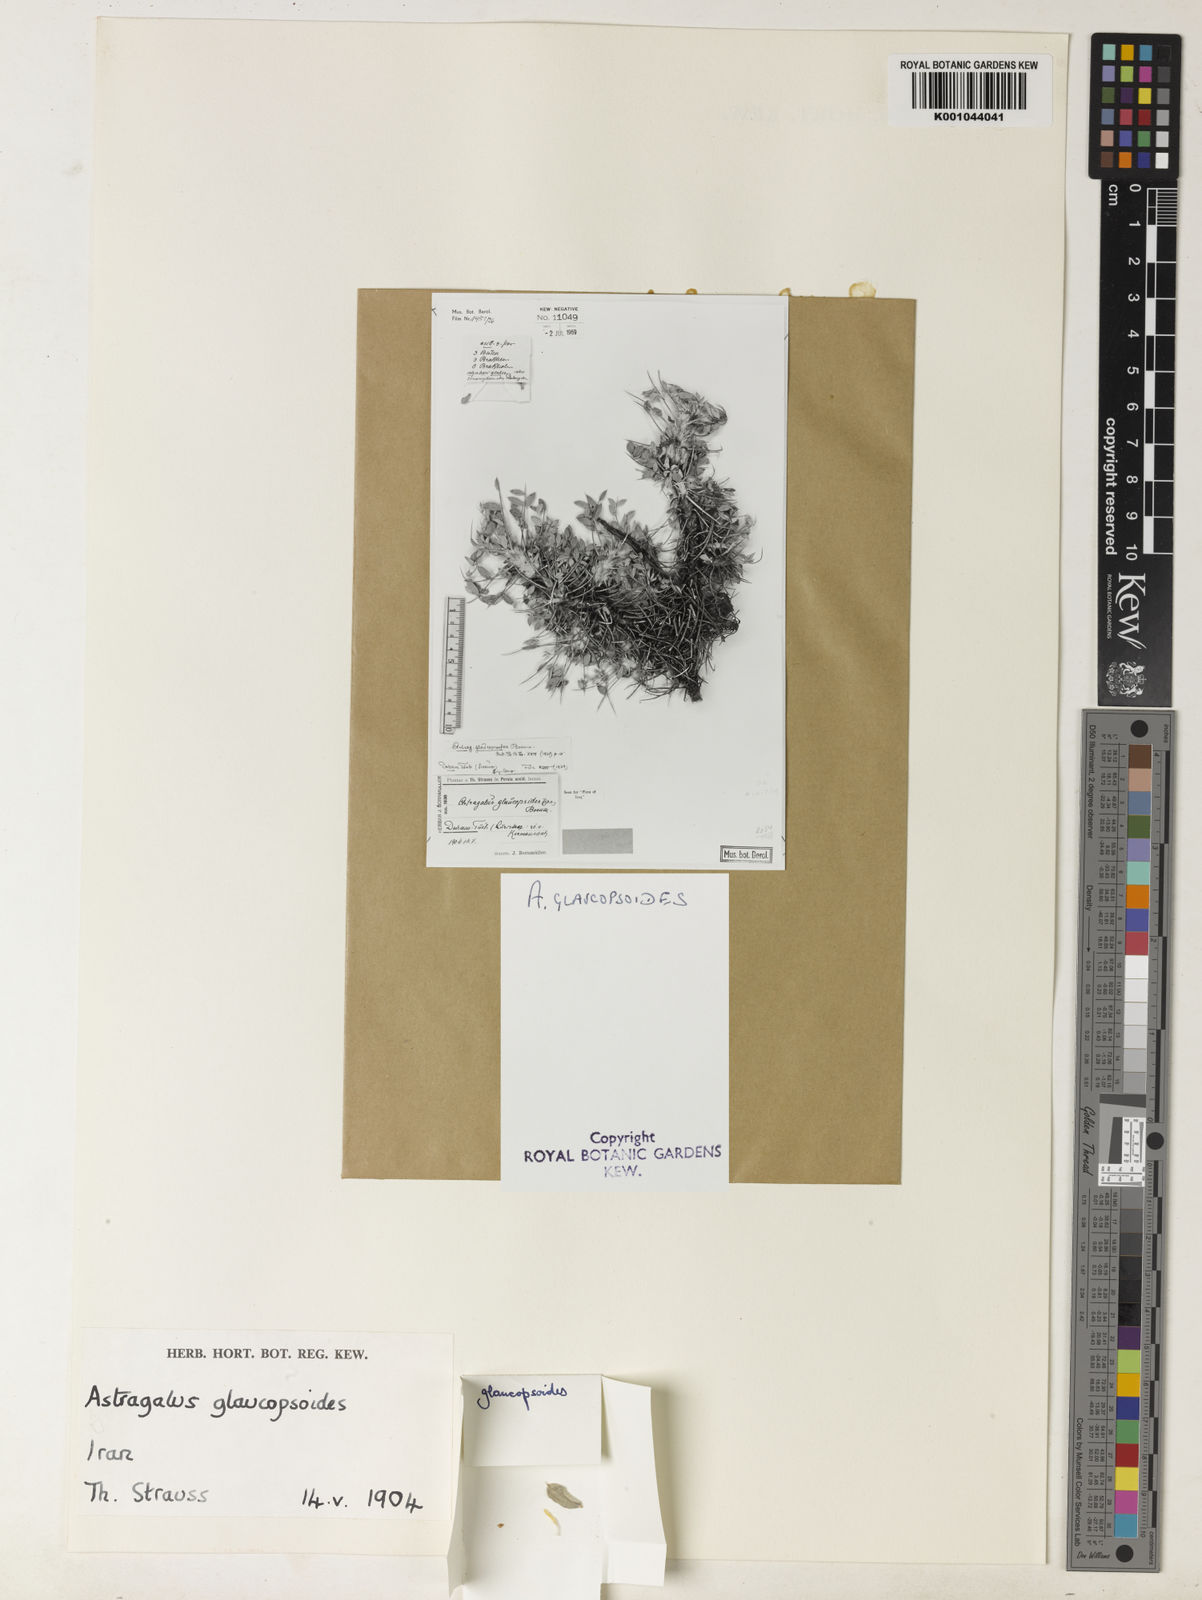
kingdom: Plantae
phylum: Tracheophyta
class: Magnoliopsida
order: Fabales
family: Fabaceae
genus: Astragalus
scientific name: Astragalus crassinervius
